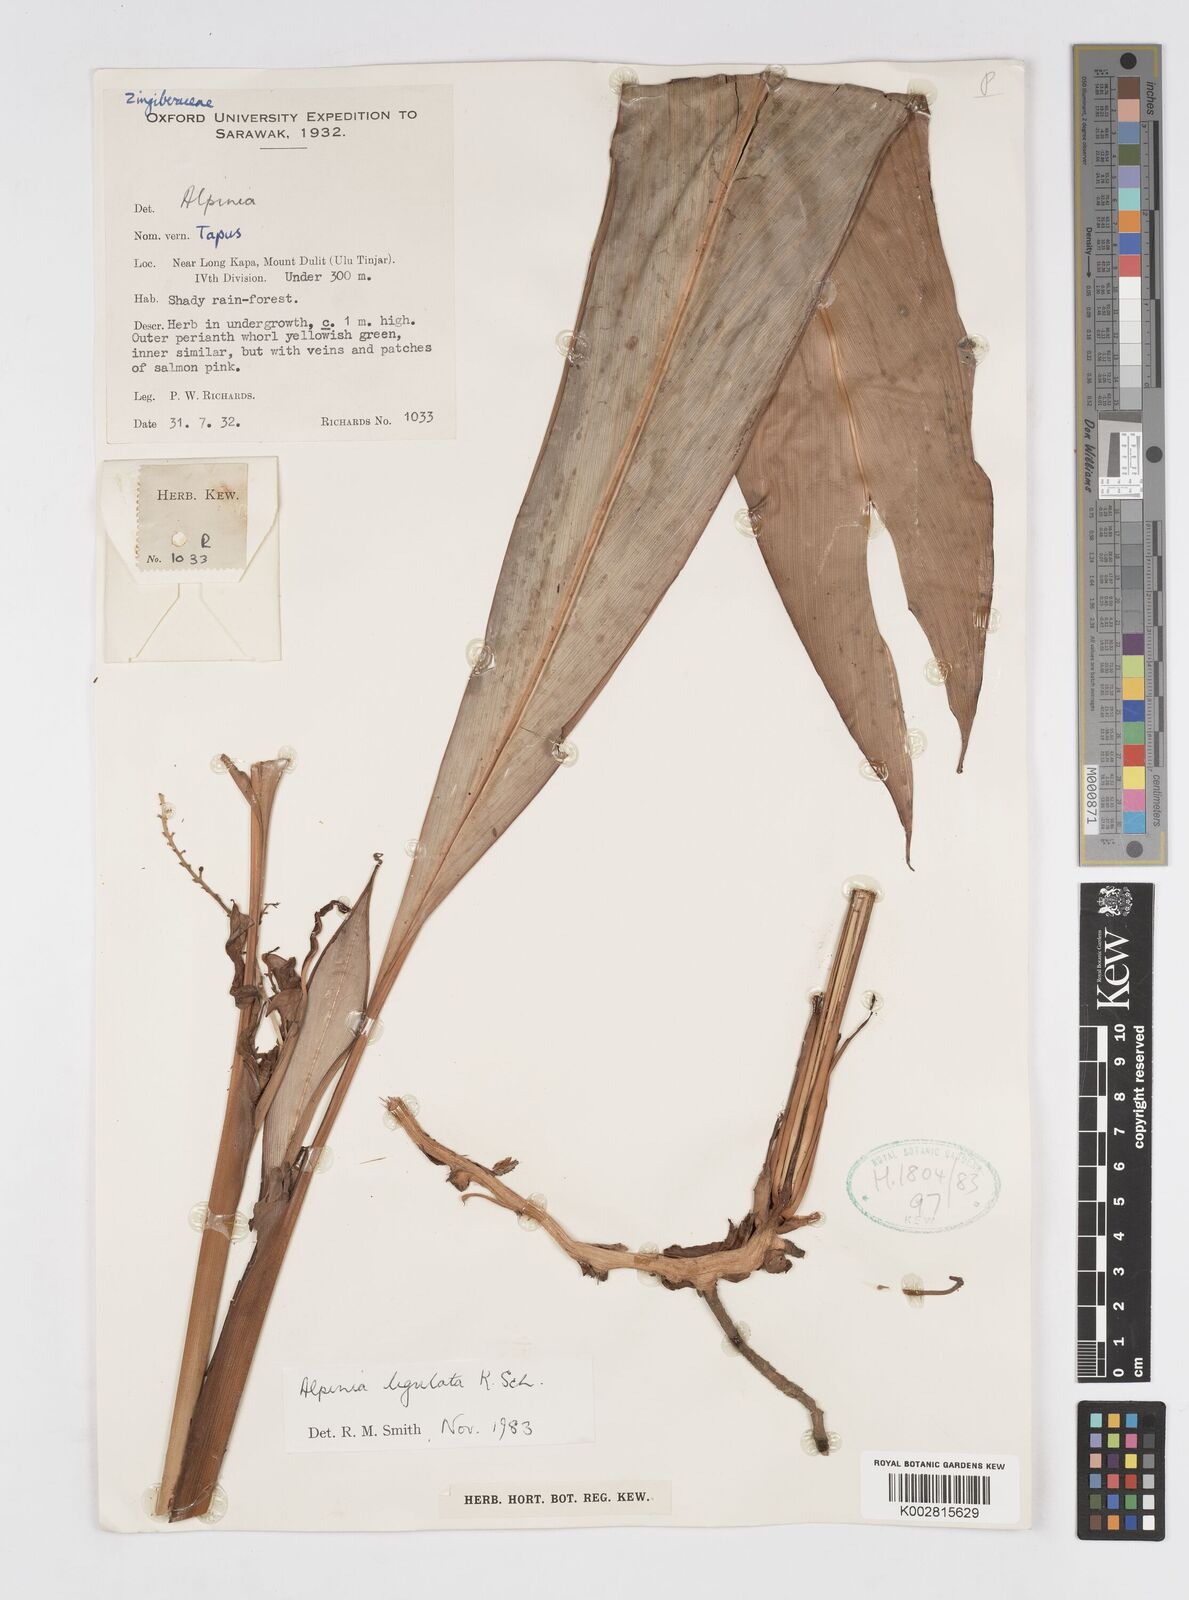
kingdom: Plantae
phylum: Tracheophyta
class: Liliopsida
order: Zingiberales
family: Zingiberaceae
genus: Alpinia
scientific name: Alpinia ligulata
